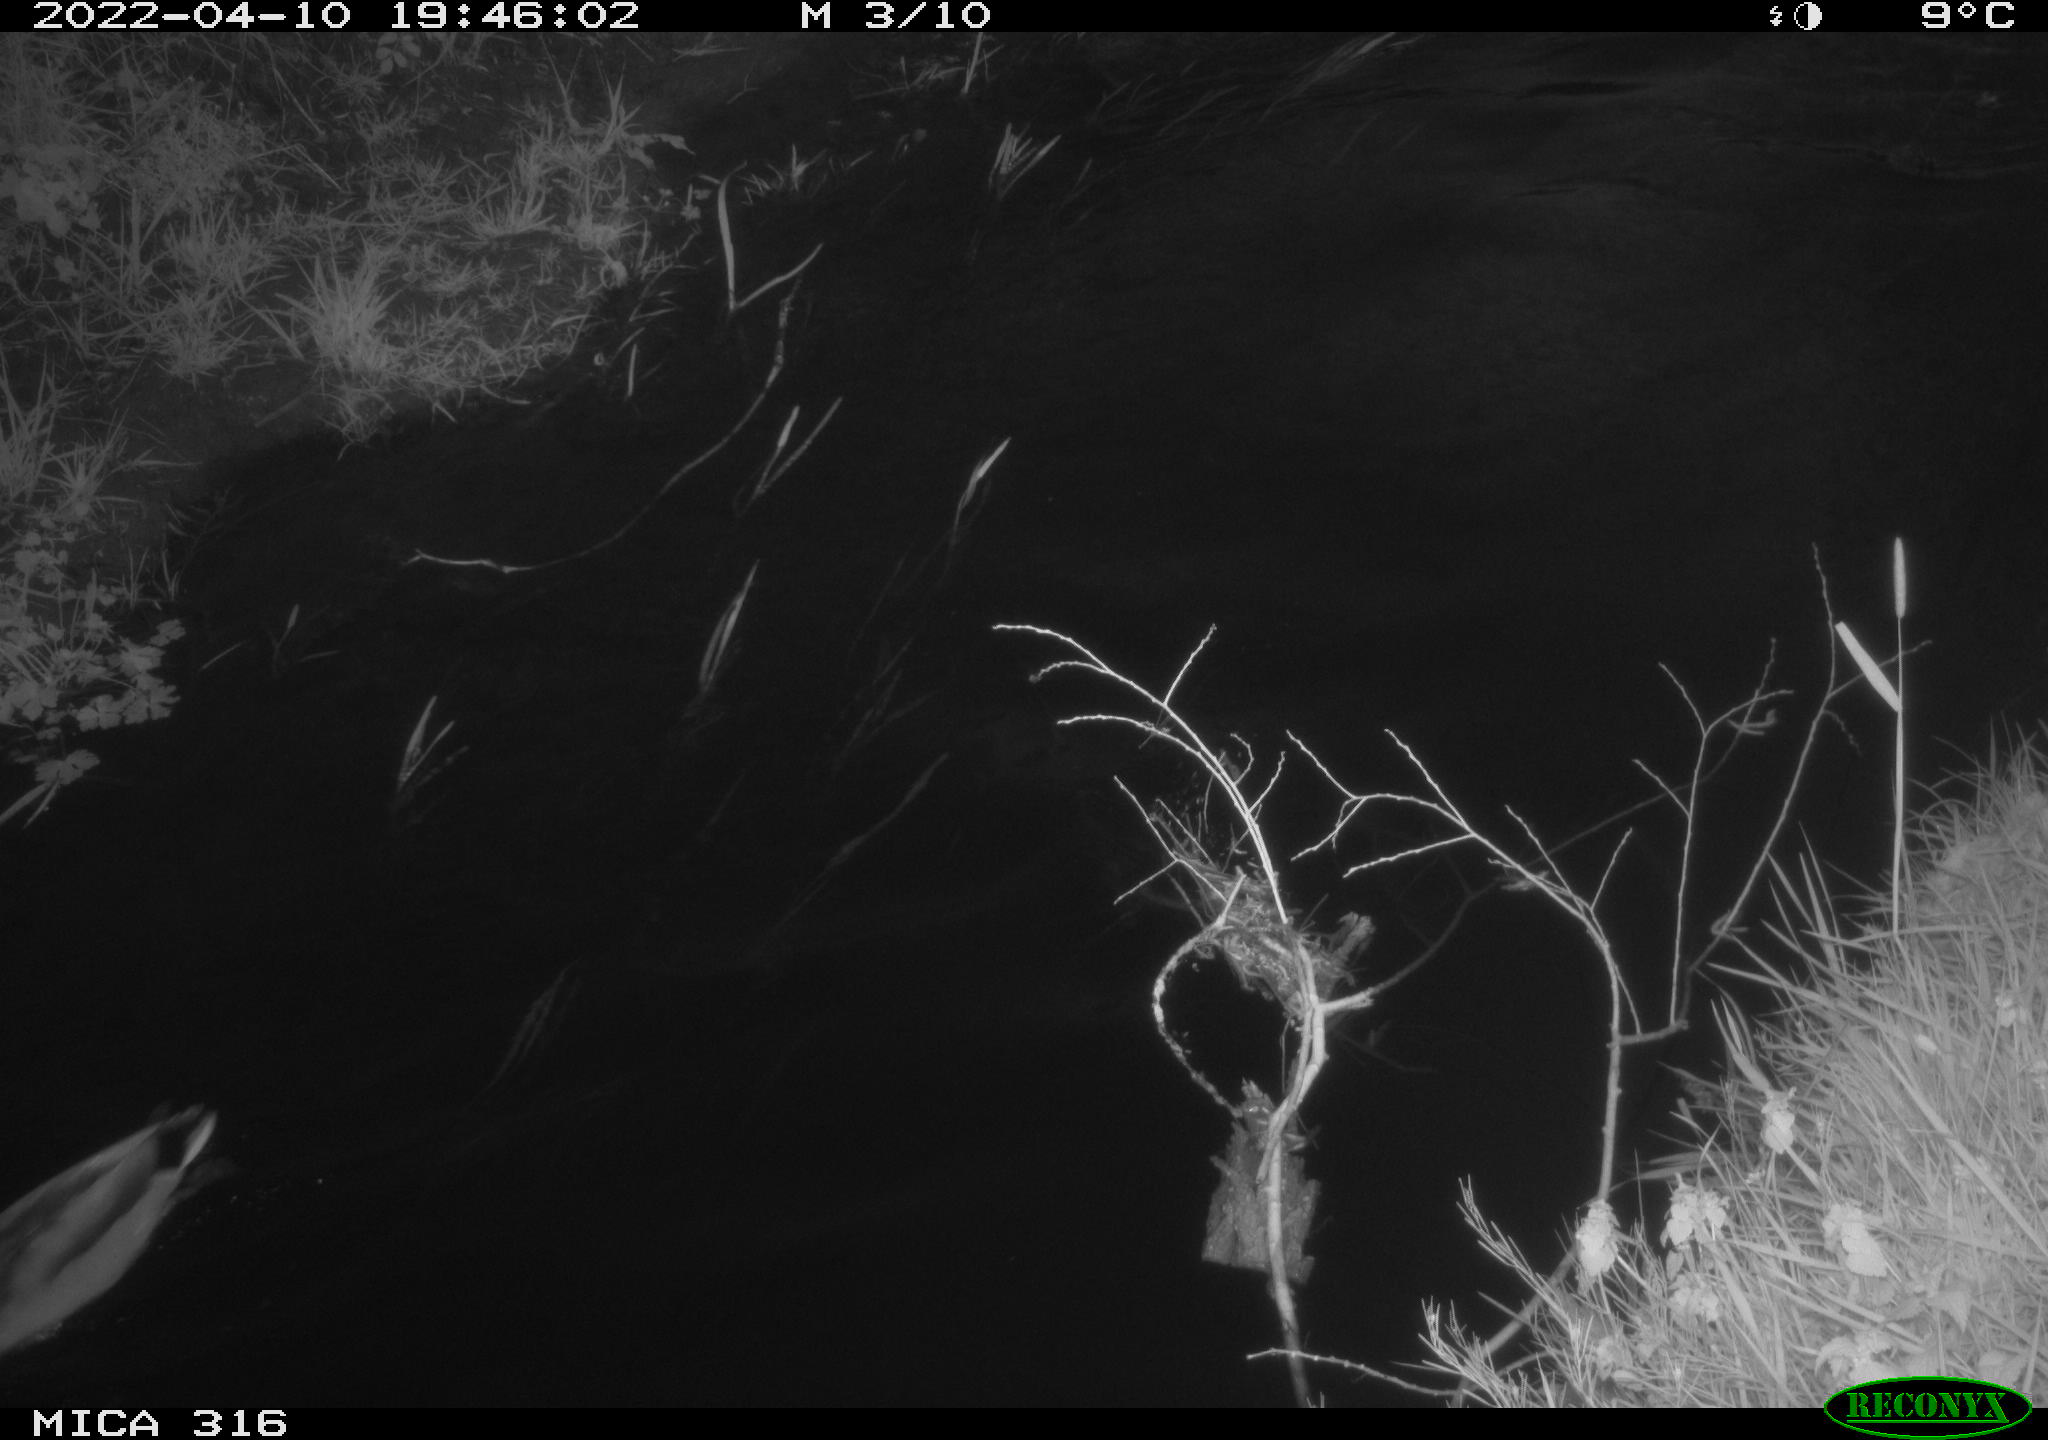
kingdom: Animalia
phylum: Chordata
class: Aves
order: Anseriformes
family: Anatidae
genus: Anas
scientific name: Anas platyrhynchos
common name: Mallard
